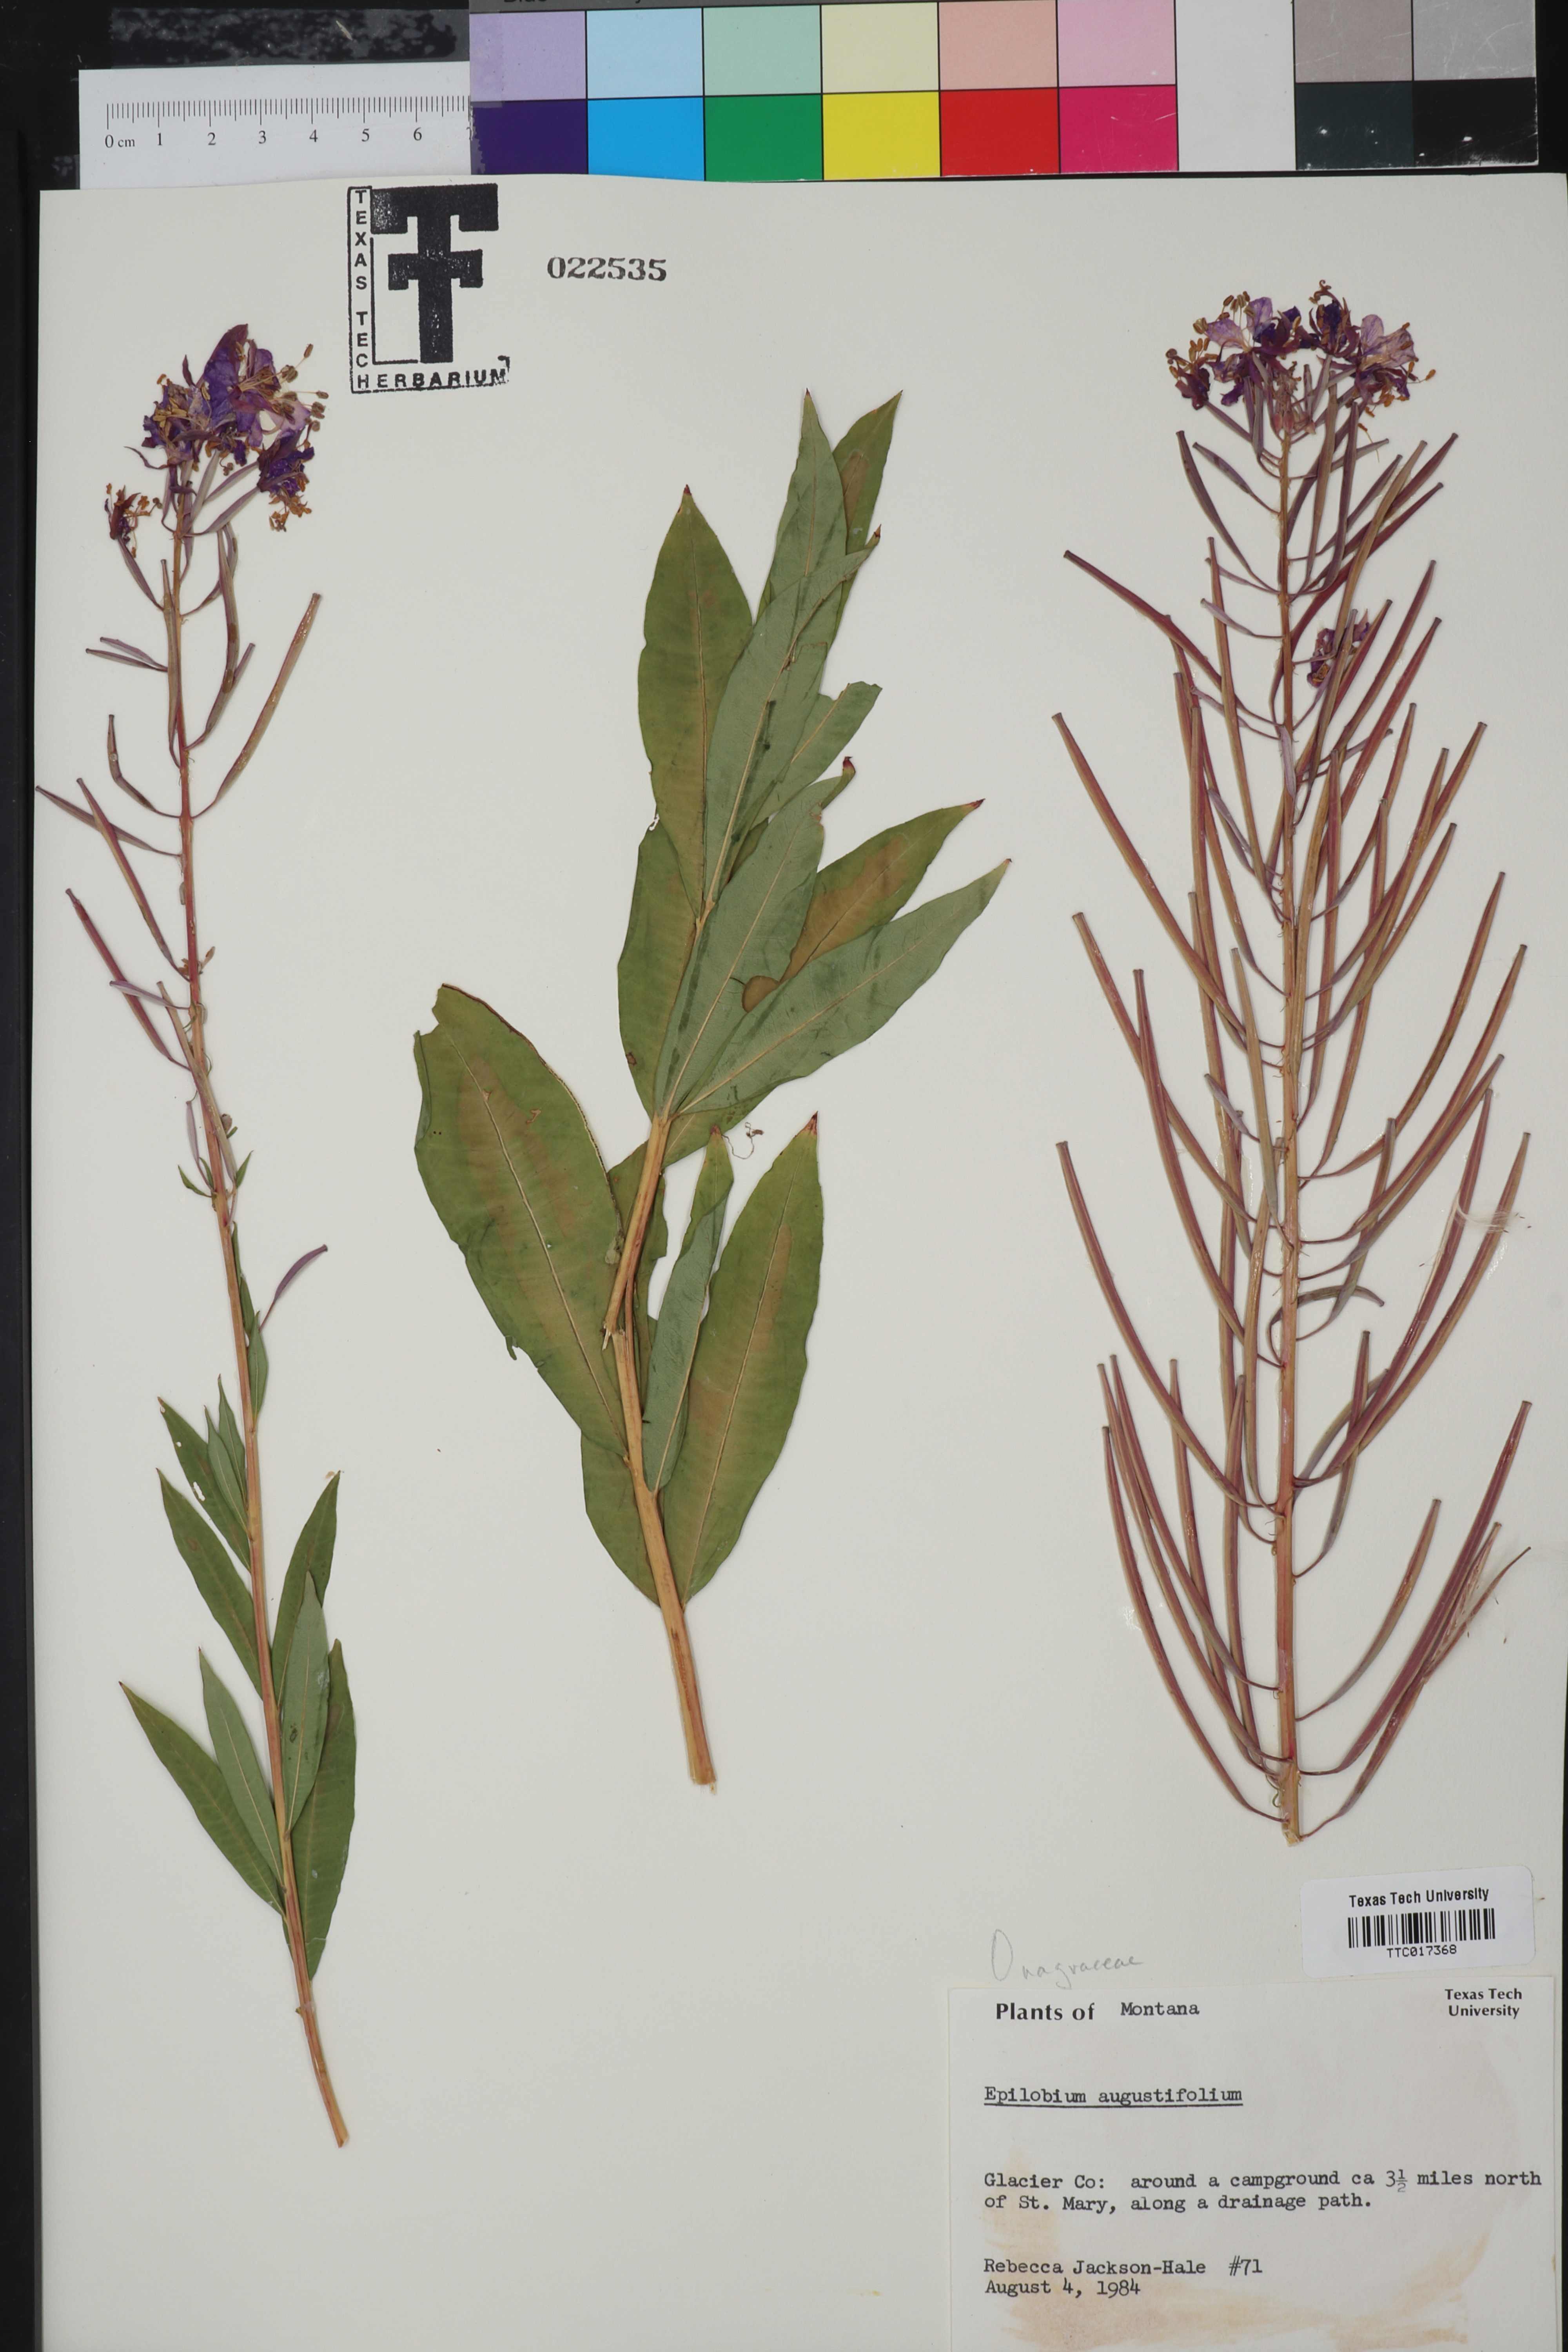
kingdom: Plantae
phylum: Tracheophyta
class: Magnoliopsida
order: Myrtales
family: Onagraceae
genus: Chamaenerion
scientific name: Chamaenerion dodonaei
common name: Rosemary-leaved willowherb
